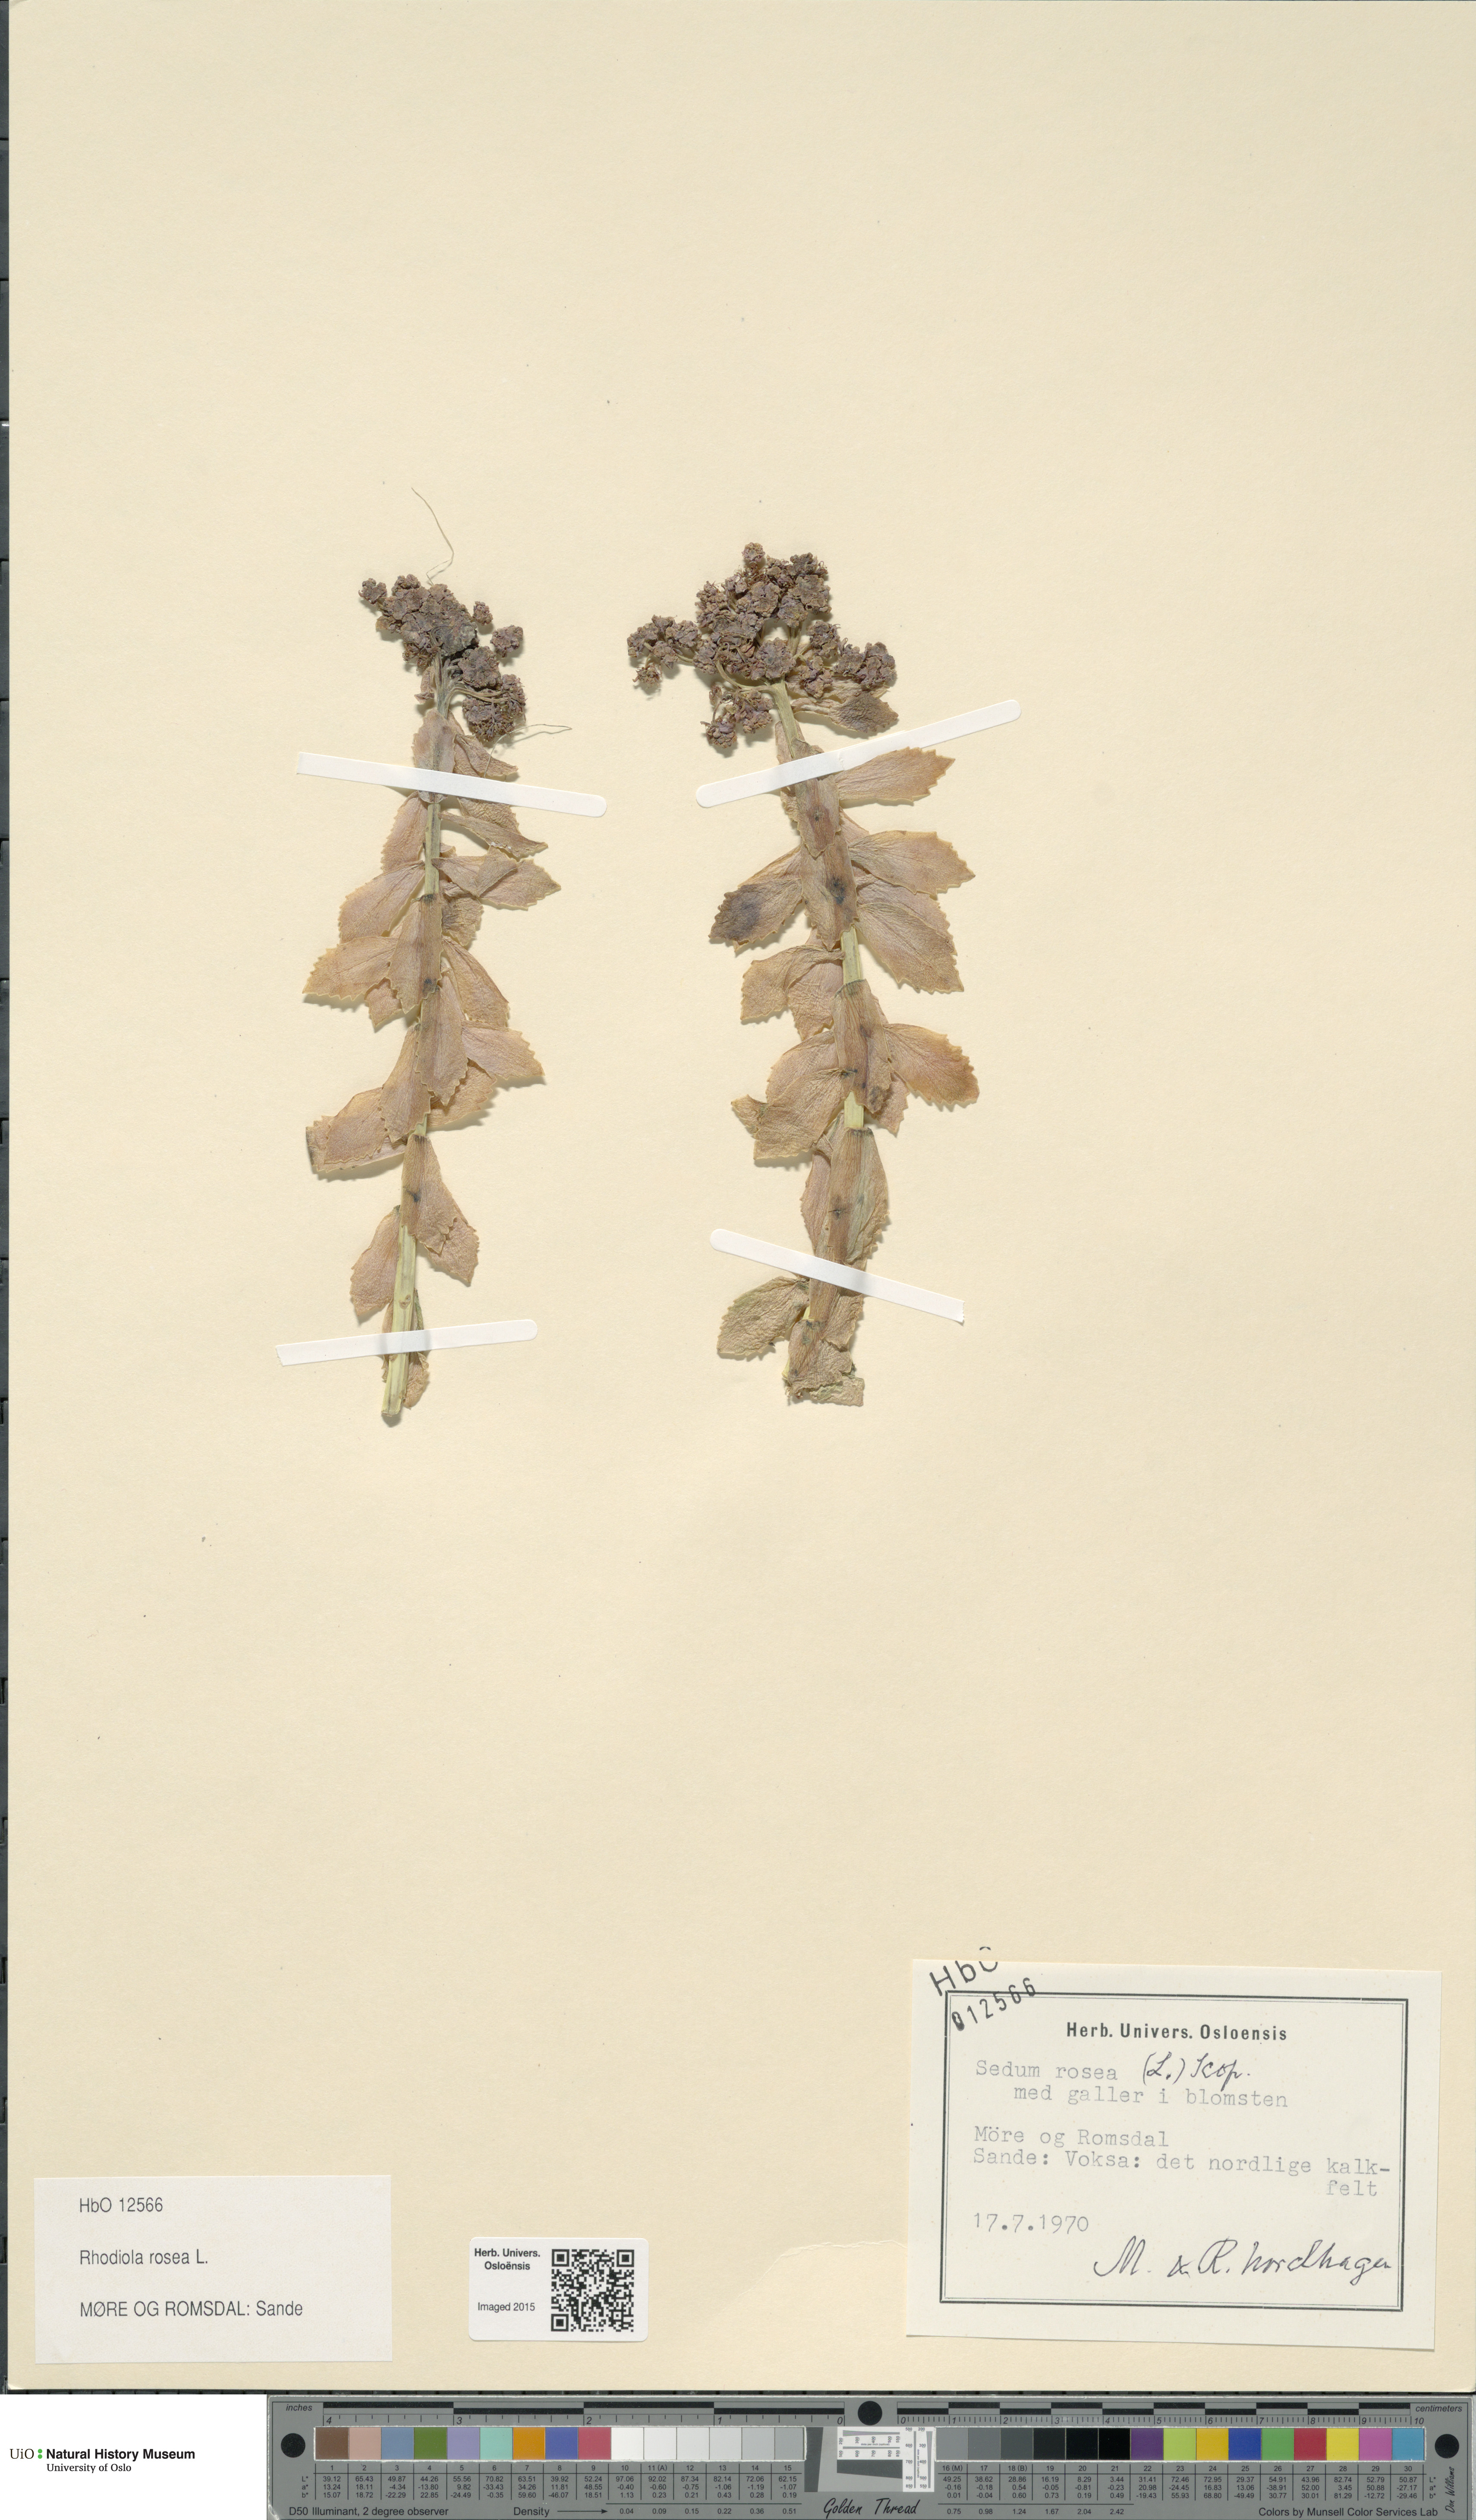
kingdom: Plantae
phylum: Tracheophyta
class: Magnoliopsida
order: Saxifragales
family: Crassulaceae
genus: Rhodiola
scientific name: Rhodiola rosea
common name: Roseroot
